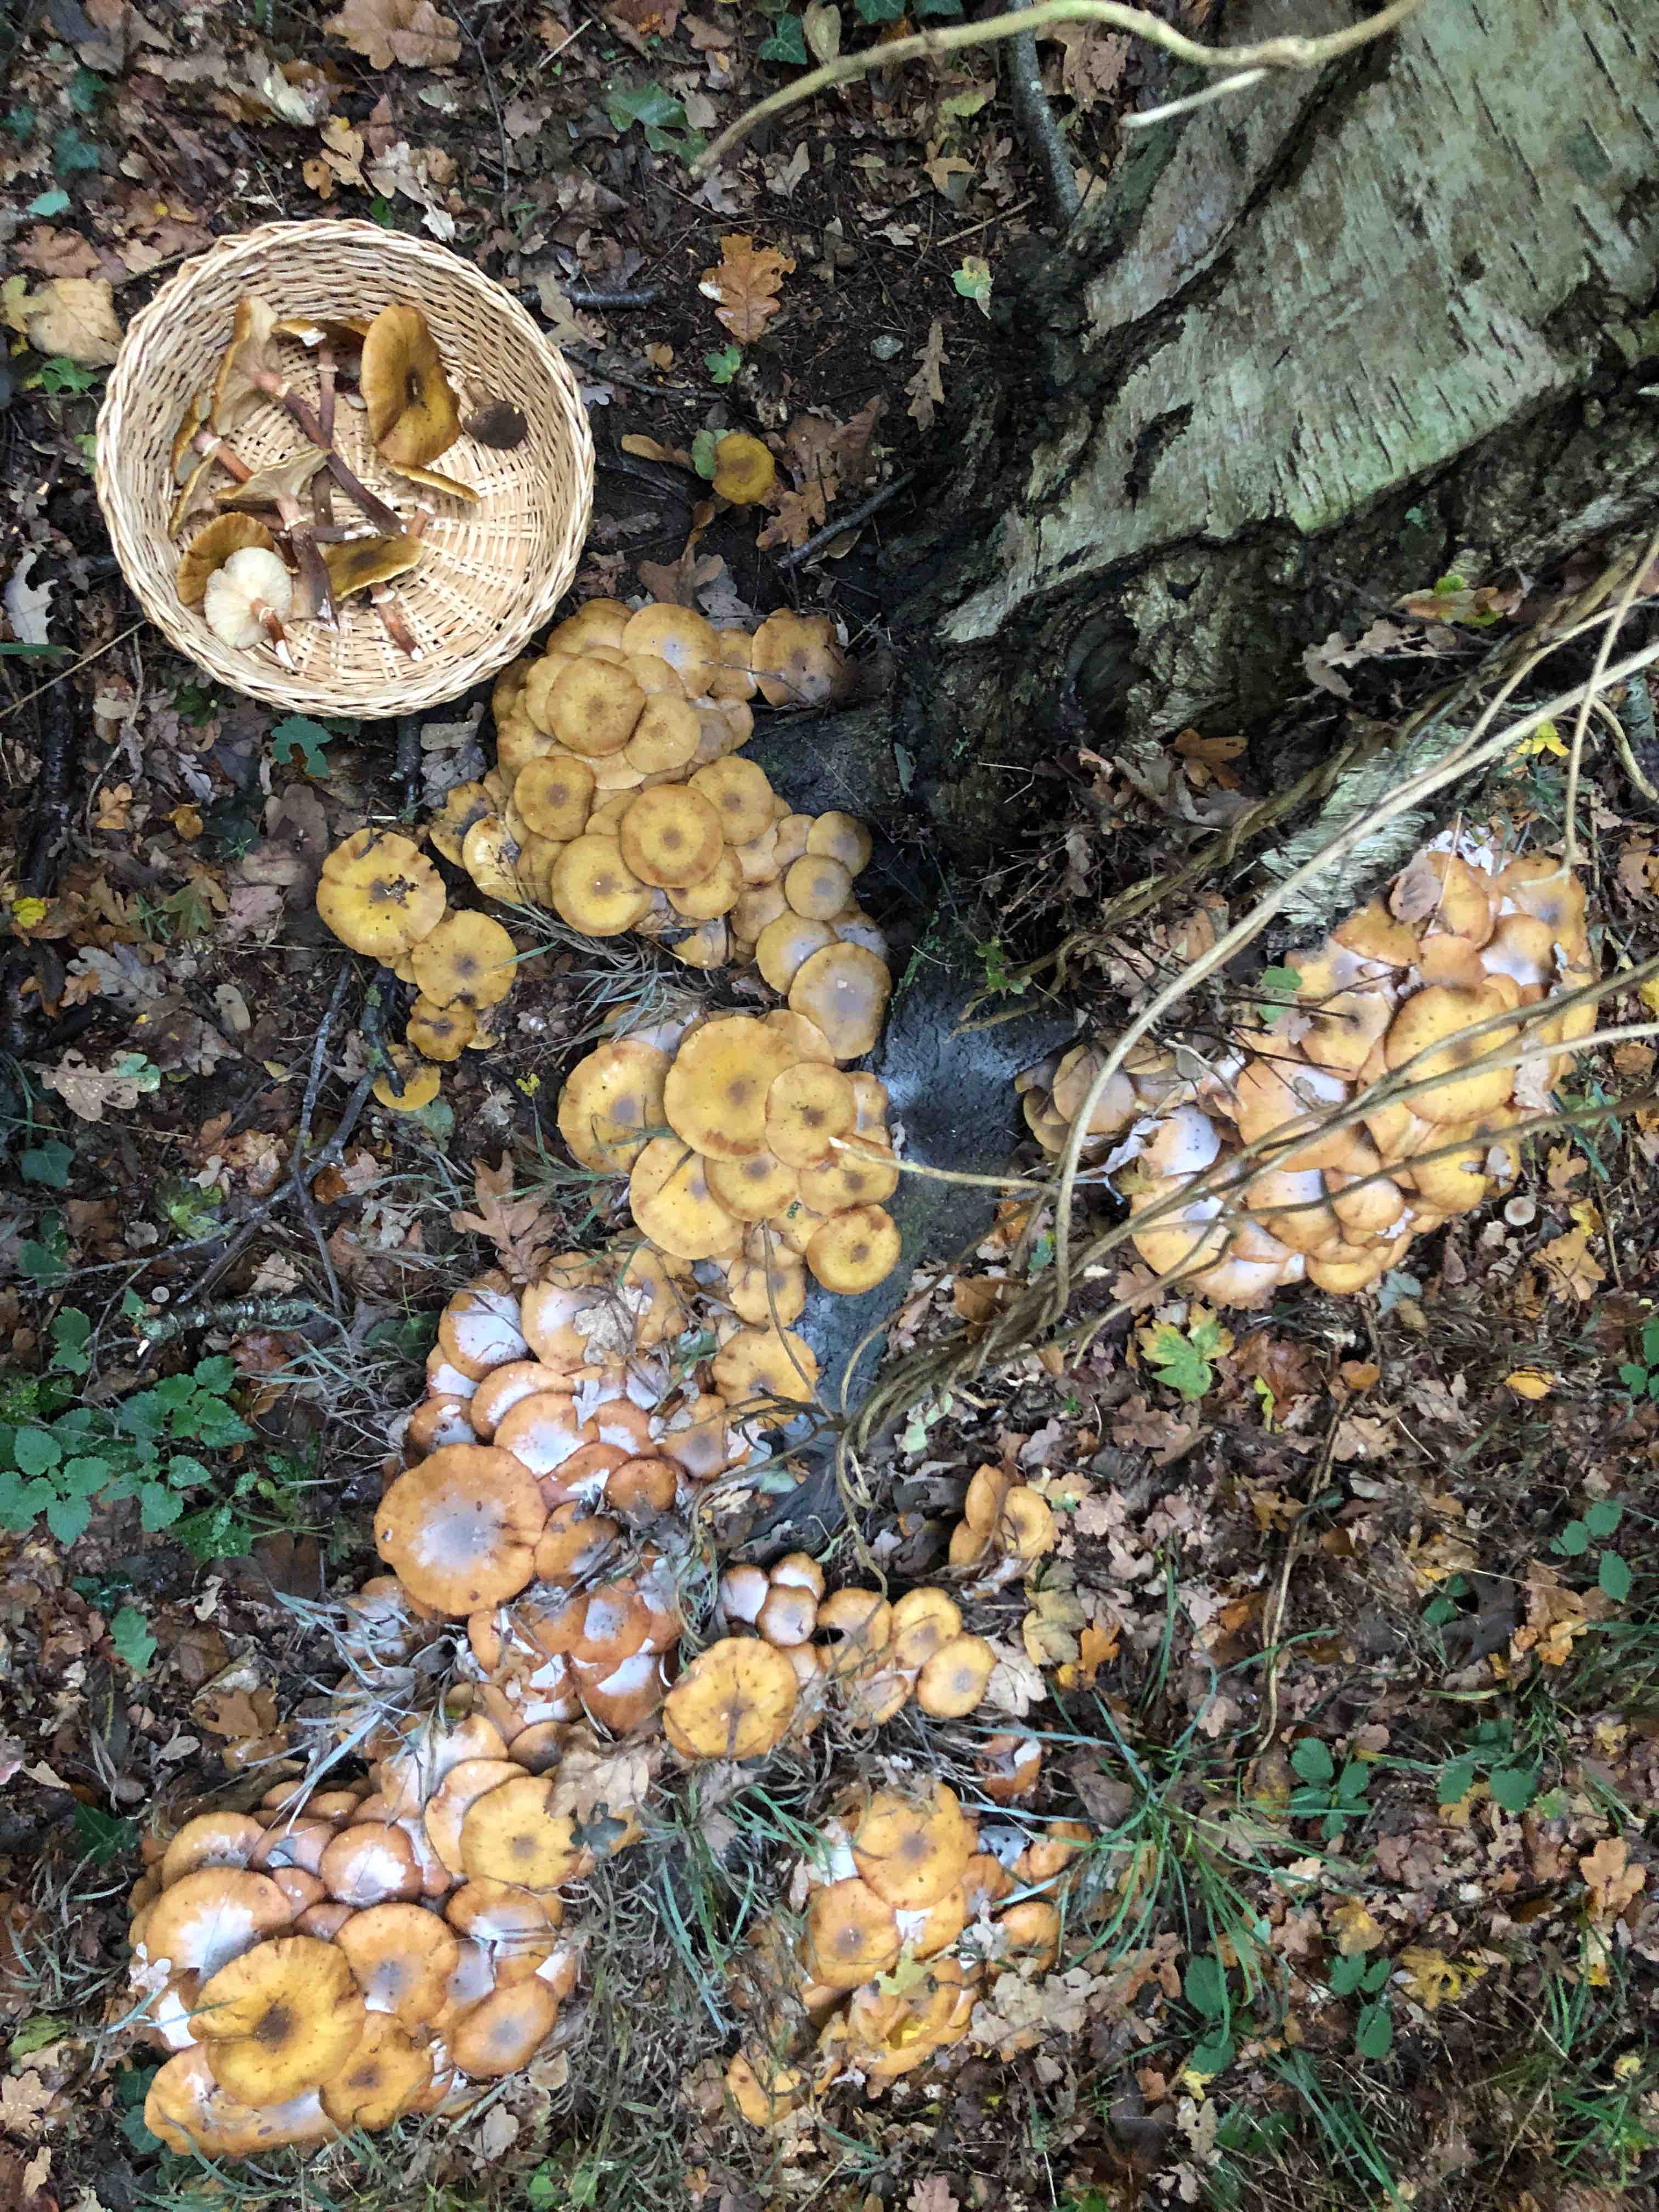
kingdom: Fungi
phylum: Basidiomycota
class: Agaricomycetes
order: Agaricales
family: Physalacriaceae
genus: Armillaria
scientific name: Armillaria mellea
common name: ægte honningsvamp
